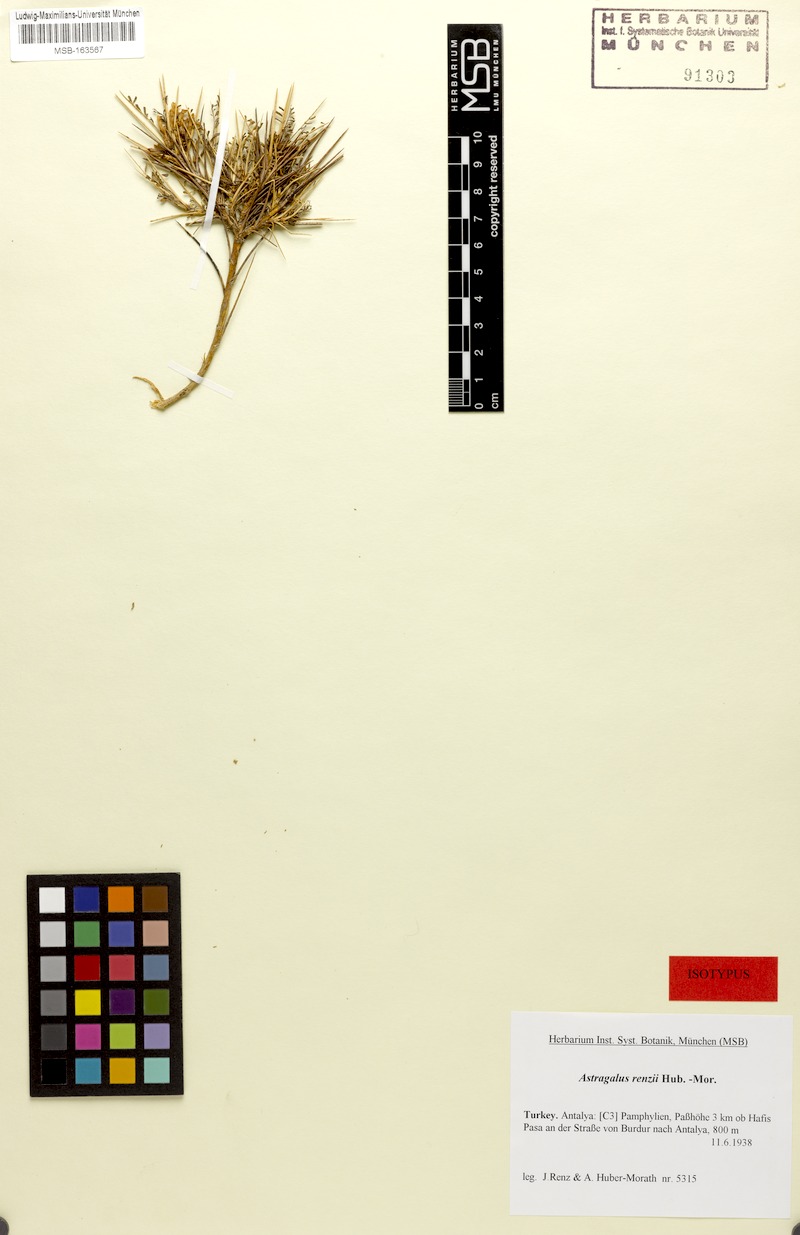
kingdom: Plantae
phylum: Tracheophyta
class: Magnoliopsida
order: Fabales
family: Fabaceae
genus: Astragalus
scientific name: Astragalus renzii
